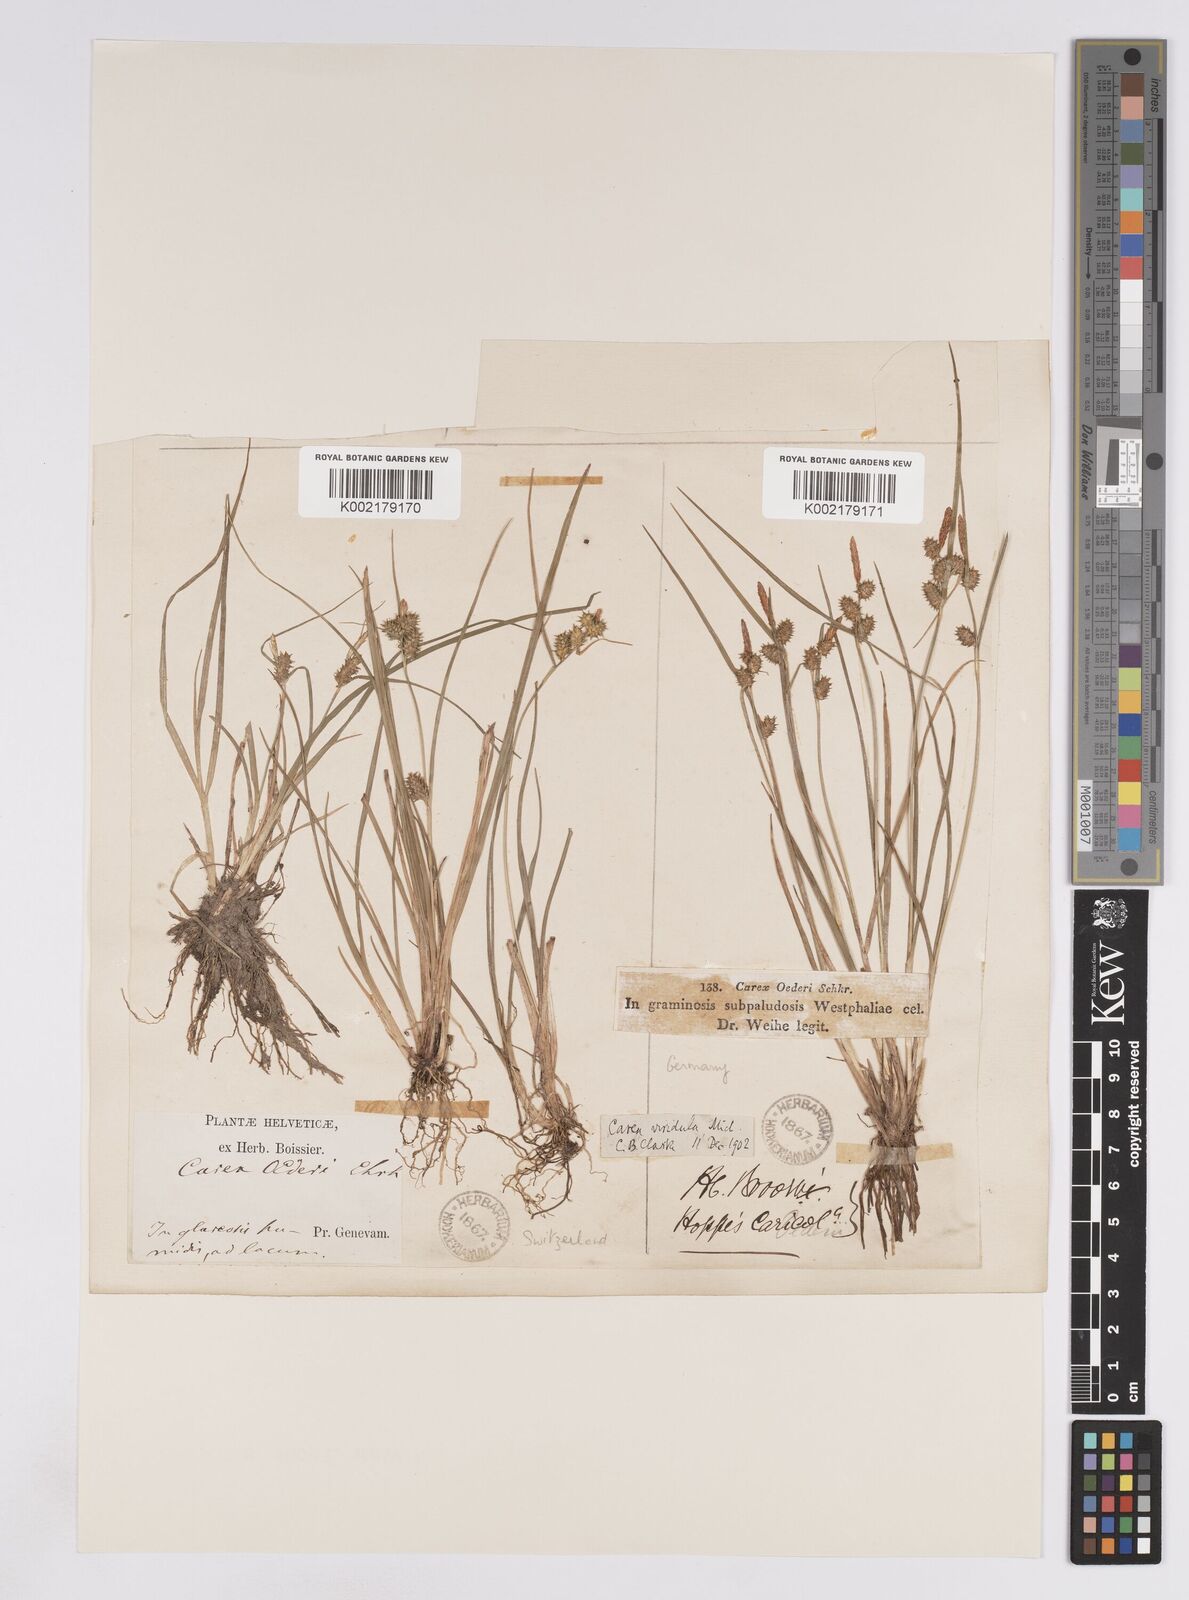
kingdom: Plantae
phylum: Tracheophyta
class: Liliopsida
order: Poales
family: Cyperaceae
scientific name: Cyperaceae
